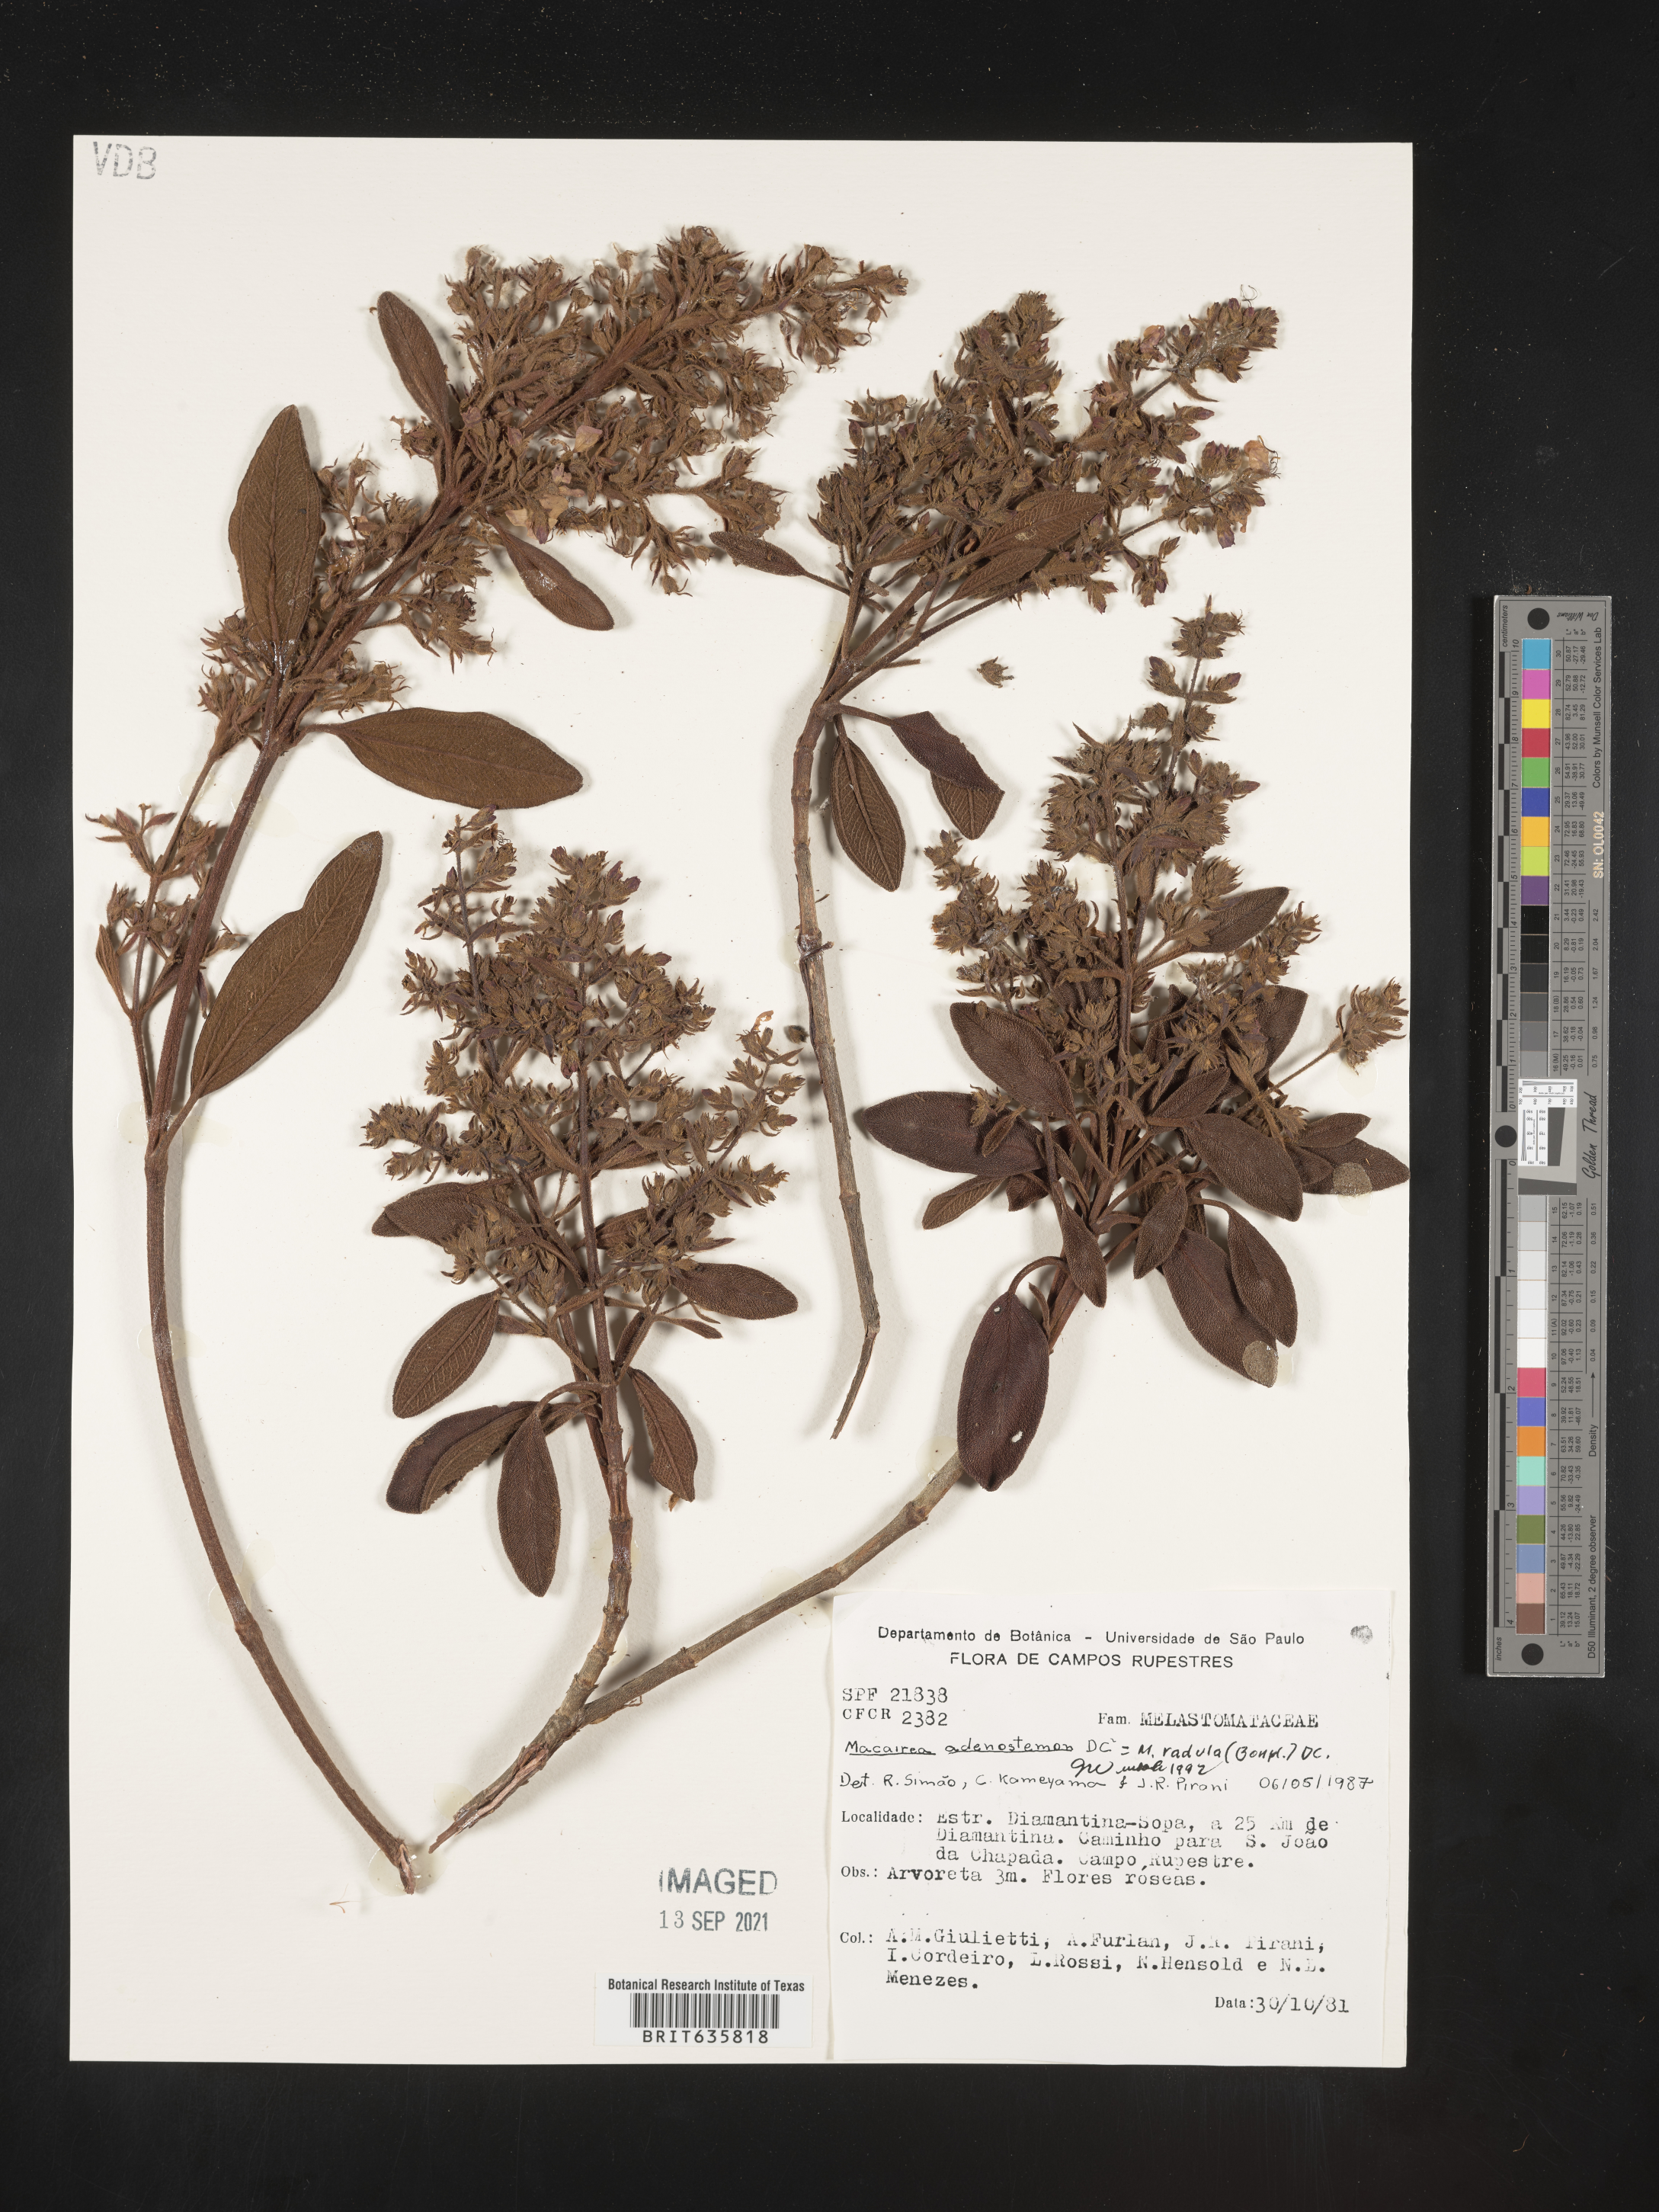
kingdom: Plantae
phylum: Tracheophyta
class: Magnoliopsida
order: Myrtales
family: Melastomataceae
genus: Macairea
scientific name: Macairea
